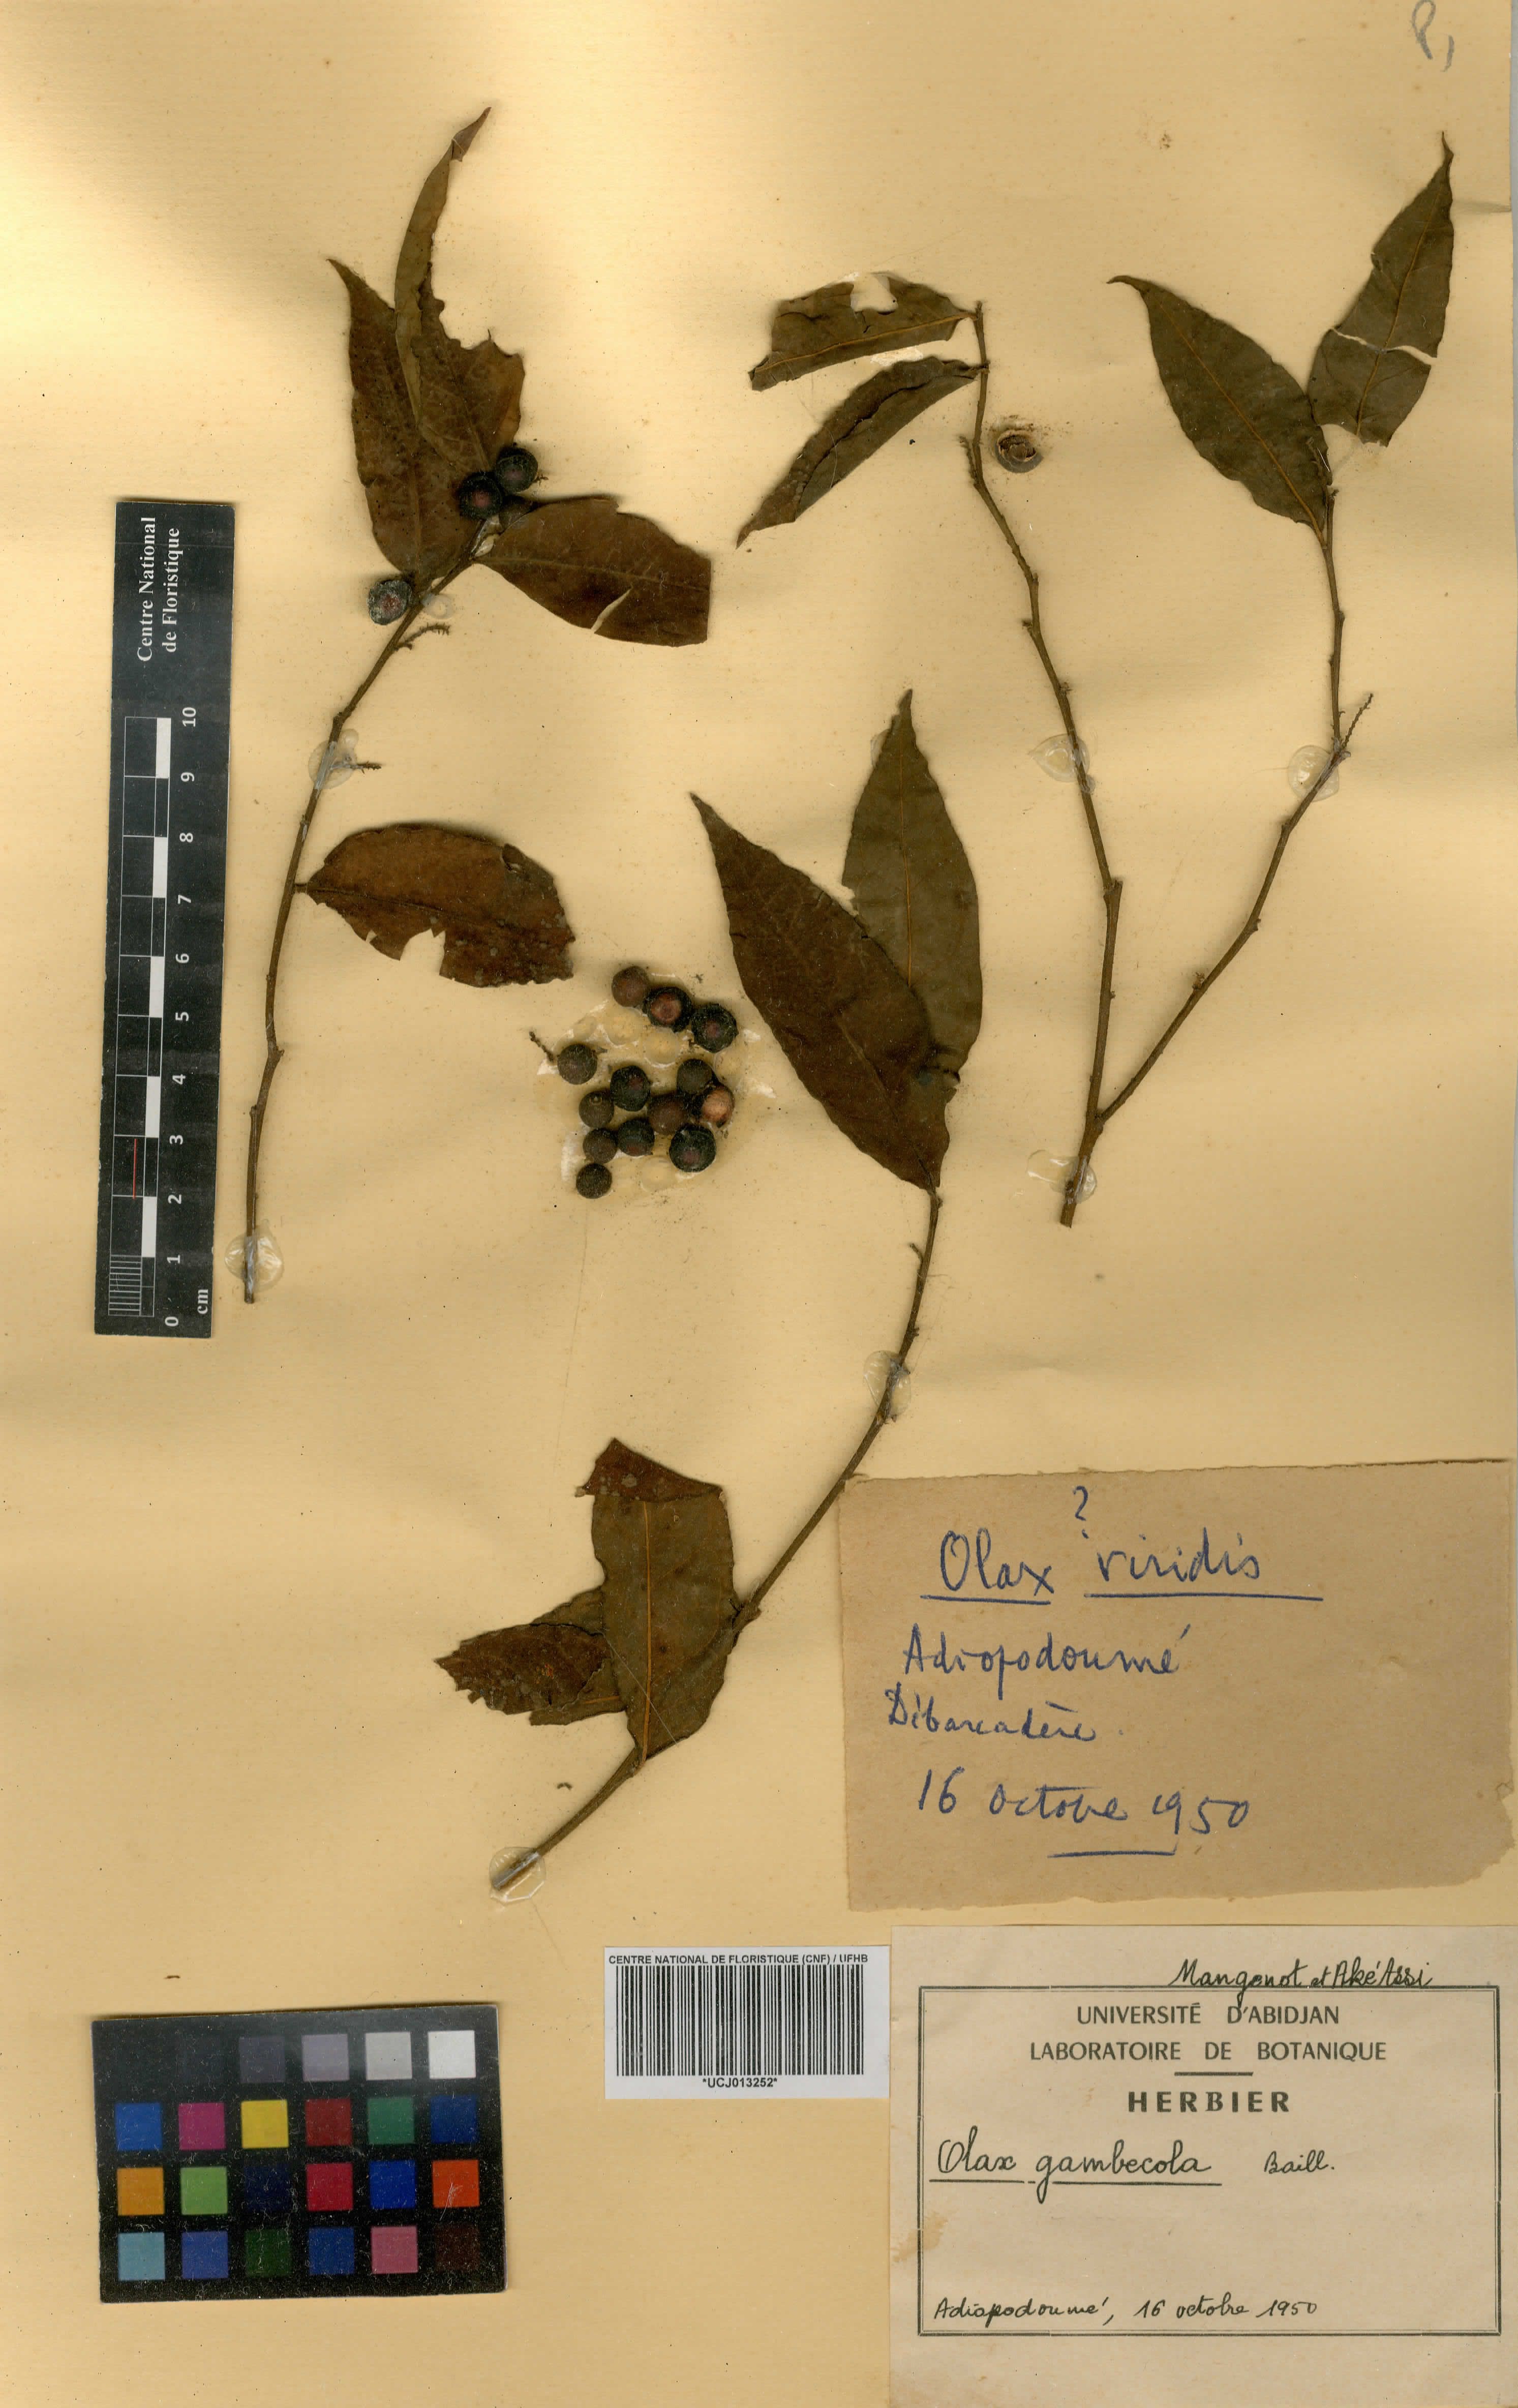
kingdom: Plantae
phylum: Tracheophyta
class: Magnoliopsida
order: Santalales
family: Olacaceae
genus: Olax
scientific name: Olax gambecola
